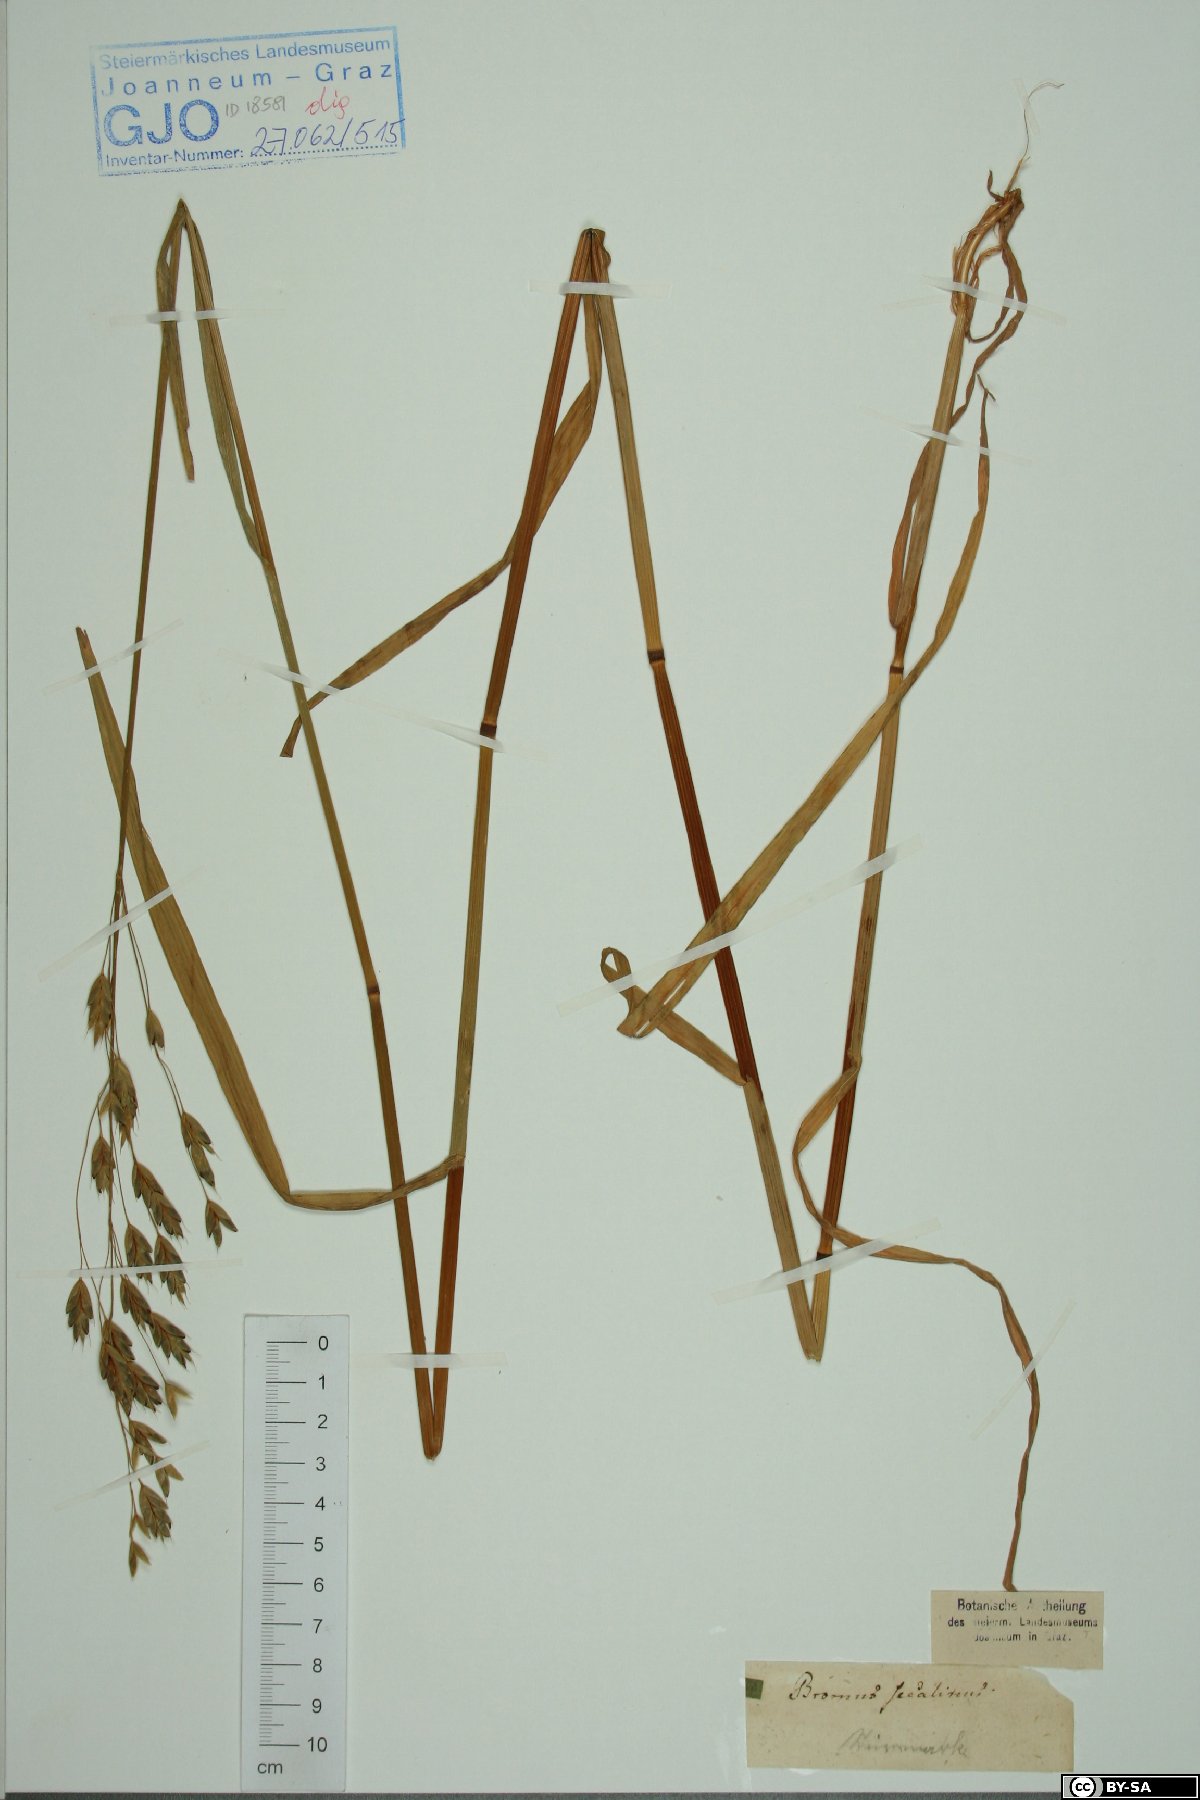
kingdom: Plantae
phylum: Tracheophyta
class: Liliopsida
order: Poales
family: Poaceae
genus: Bromus
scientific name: Bromus secalinus
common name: Rye brome
